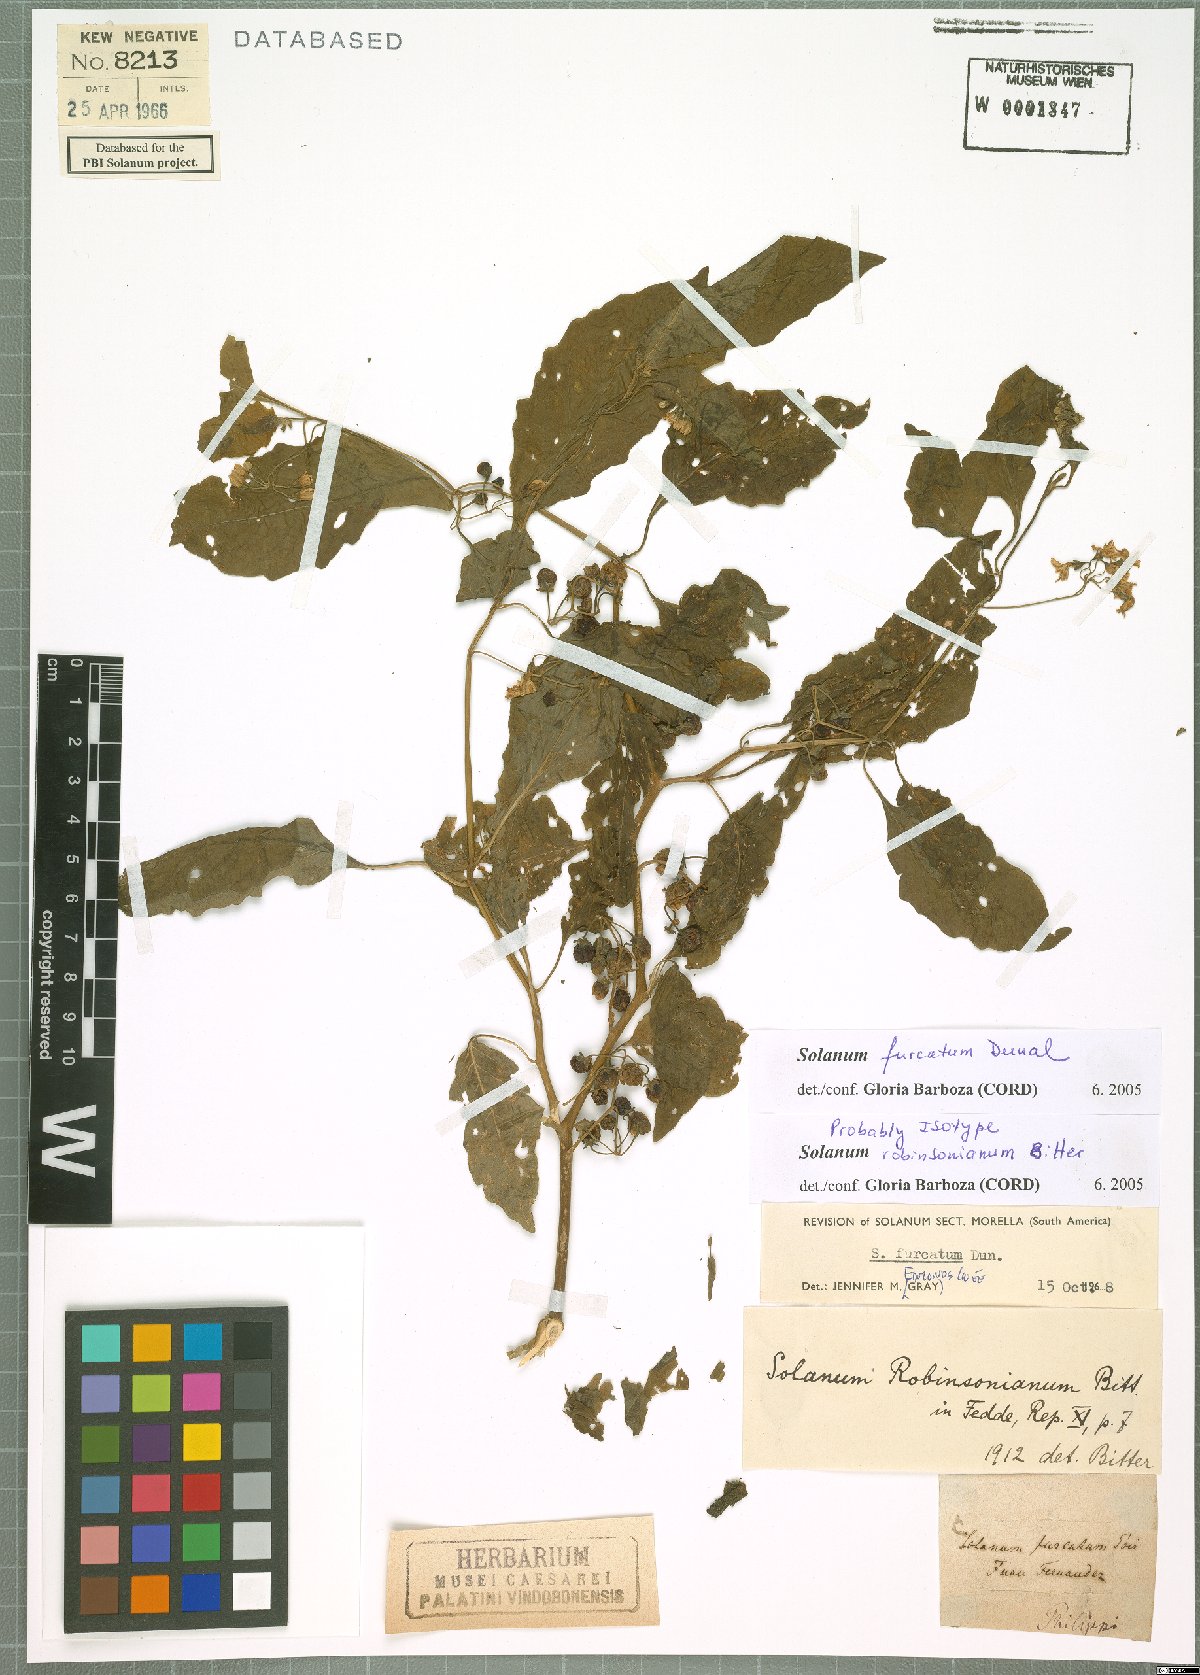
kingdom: Plantae
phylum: Tracheophyta
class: Magnoliopsida
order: Solanales
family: Solanaceae
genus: Solanum
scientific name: Solanum furcatum
